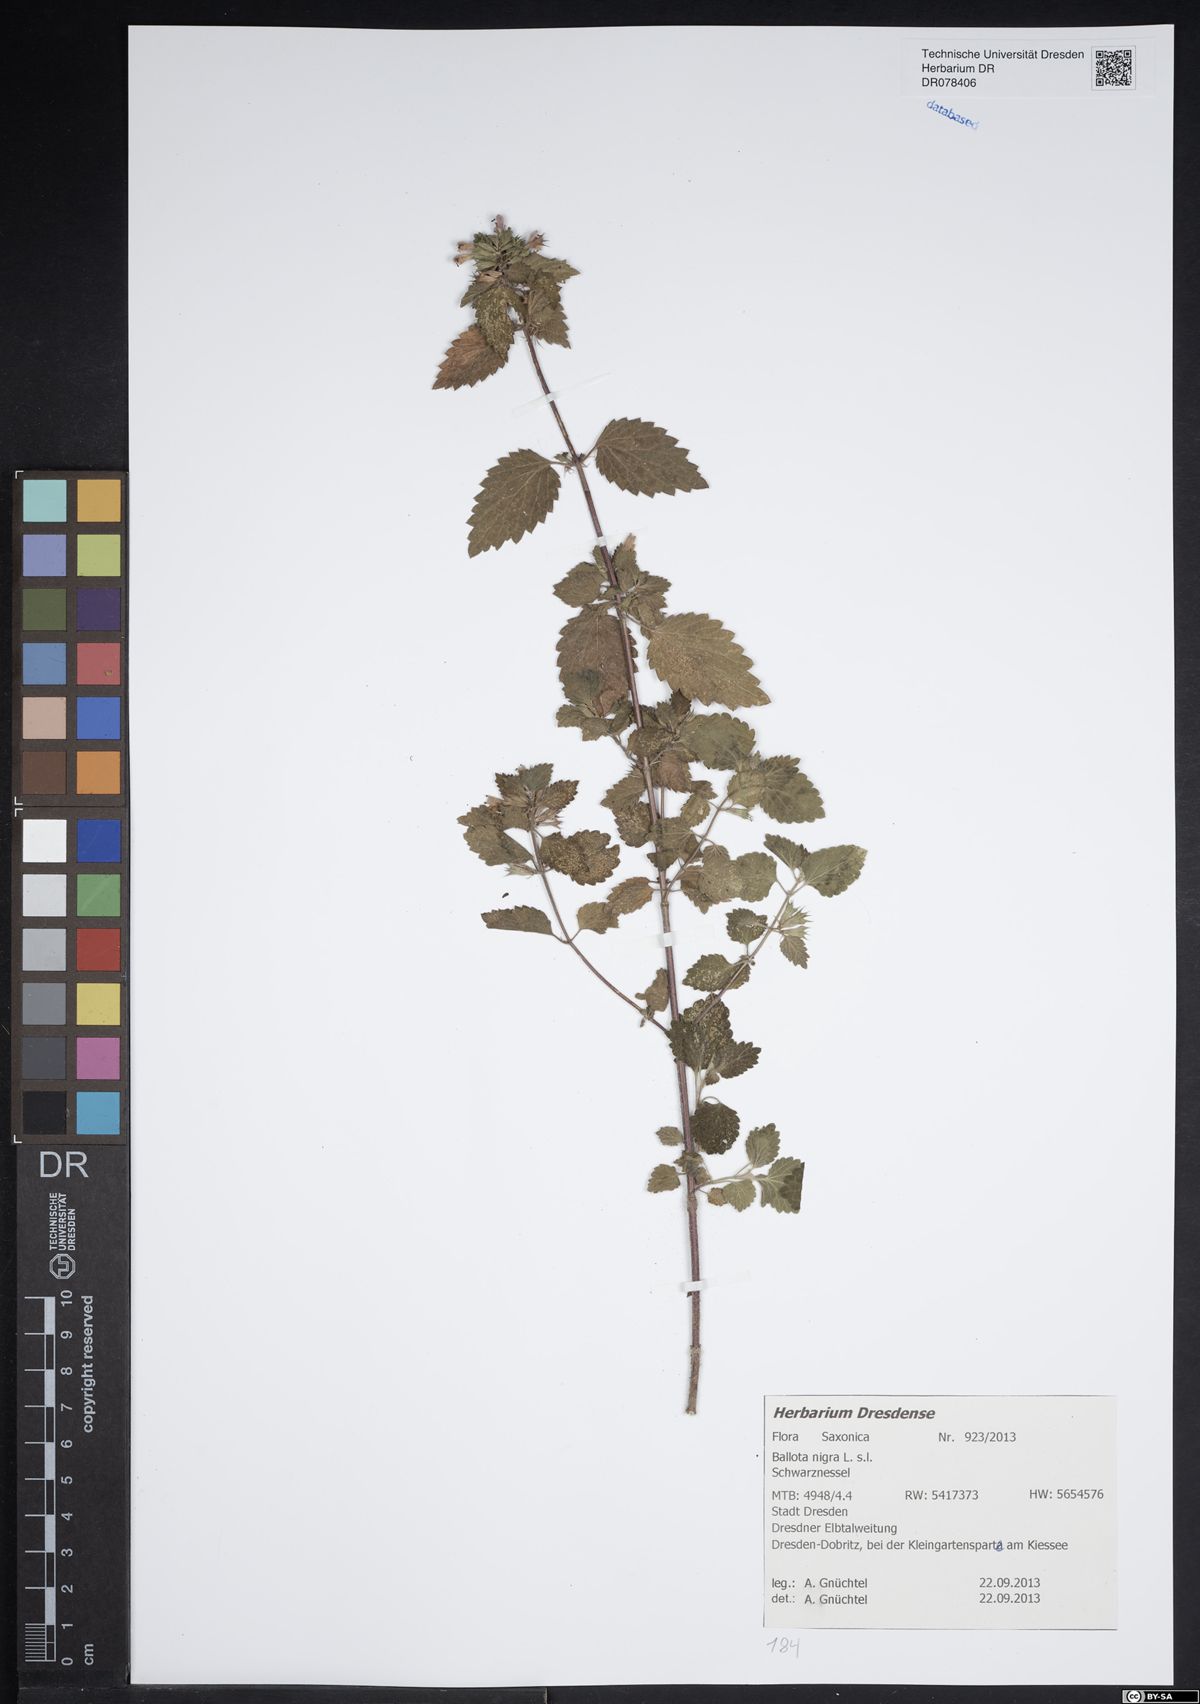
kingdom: Plantae
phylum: Tracheophyta
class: Magnoliopsida
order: Lamiales
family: Lamiaceae
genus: Ballota
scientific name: Ballota nigra
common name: Black horehound
